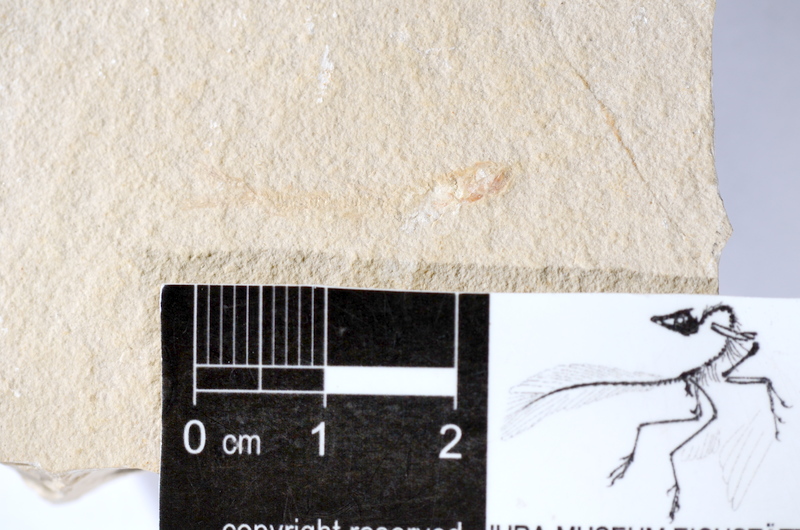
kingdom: Animalia
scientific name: Animalia
